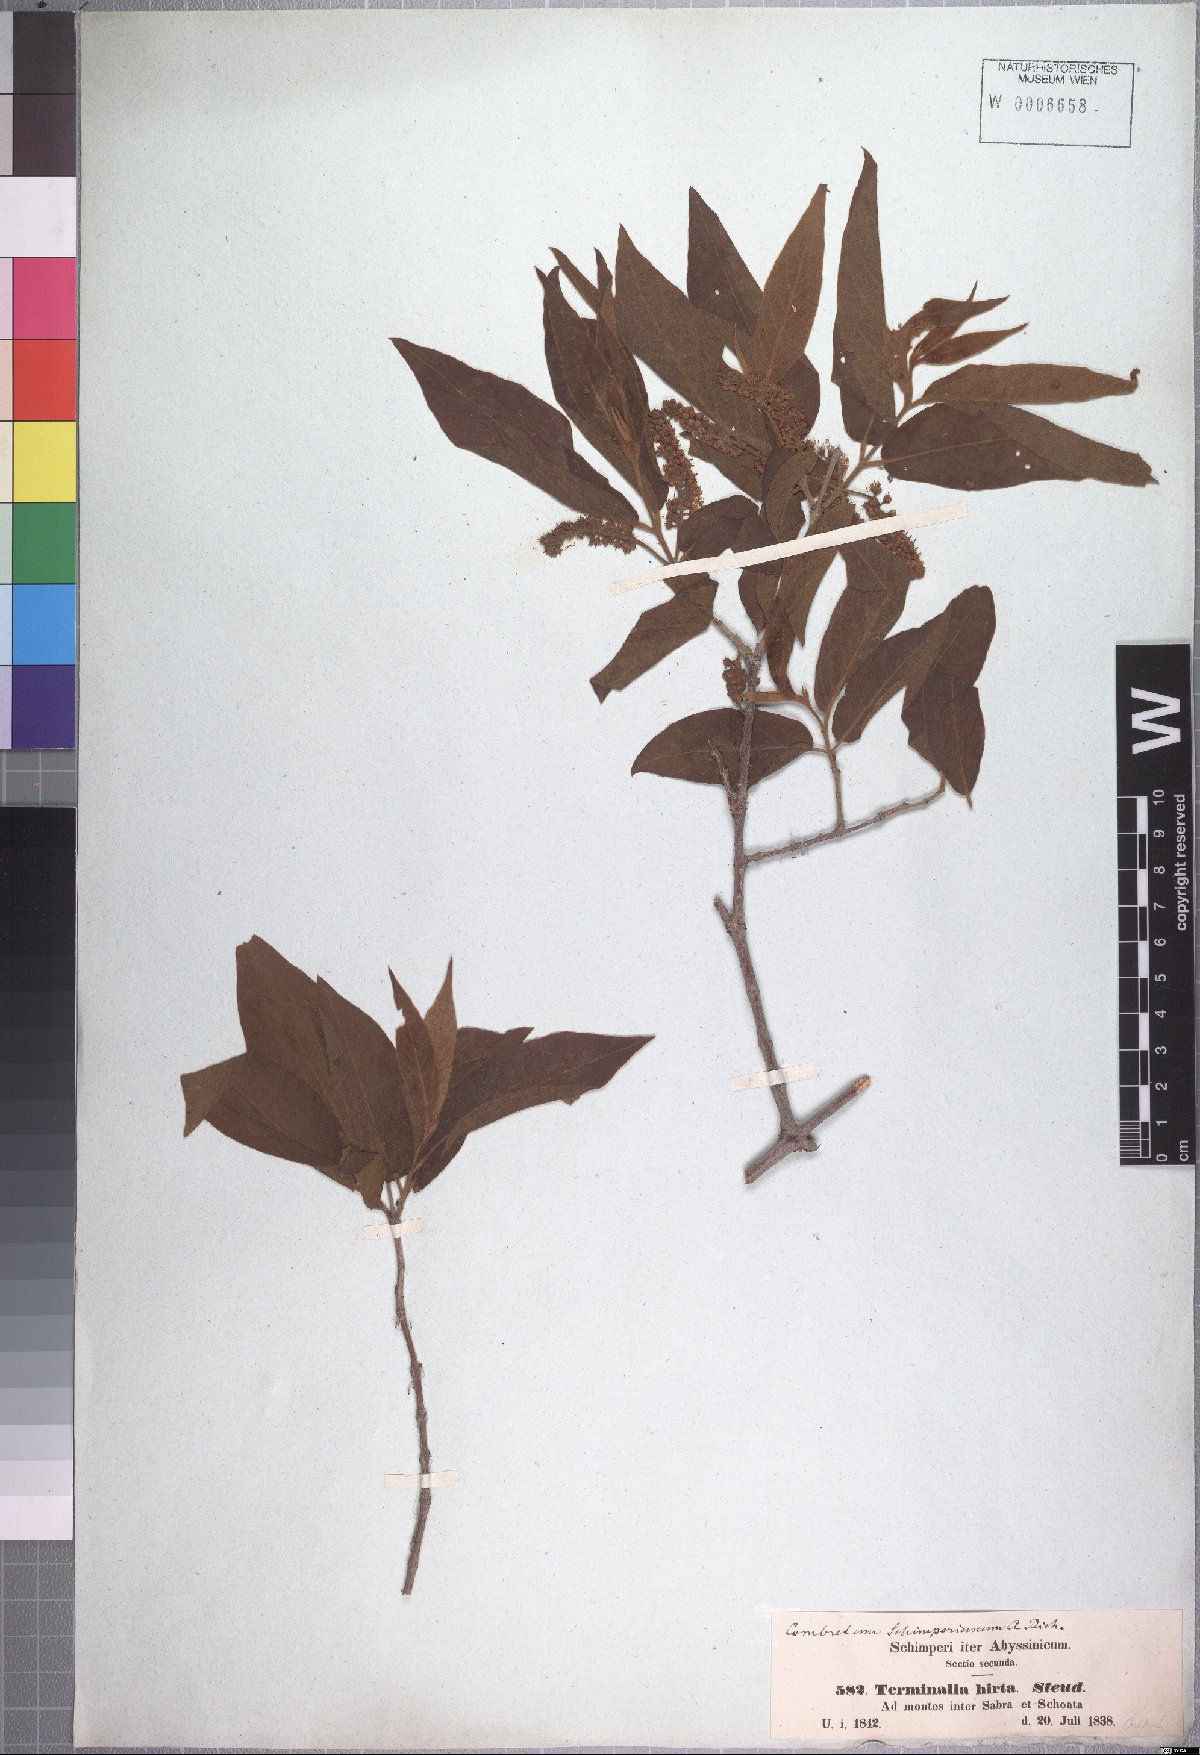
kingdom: Plantae
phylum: Tracheophyta
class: Magnoliopsida
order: Myrtales
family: Combretaceae
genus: Combretum
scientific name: Combretum molle
